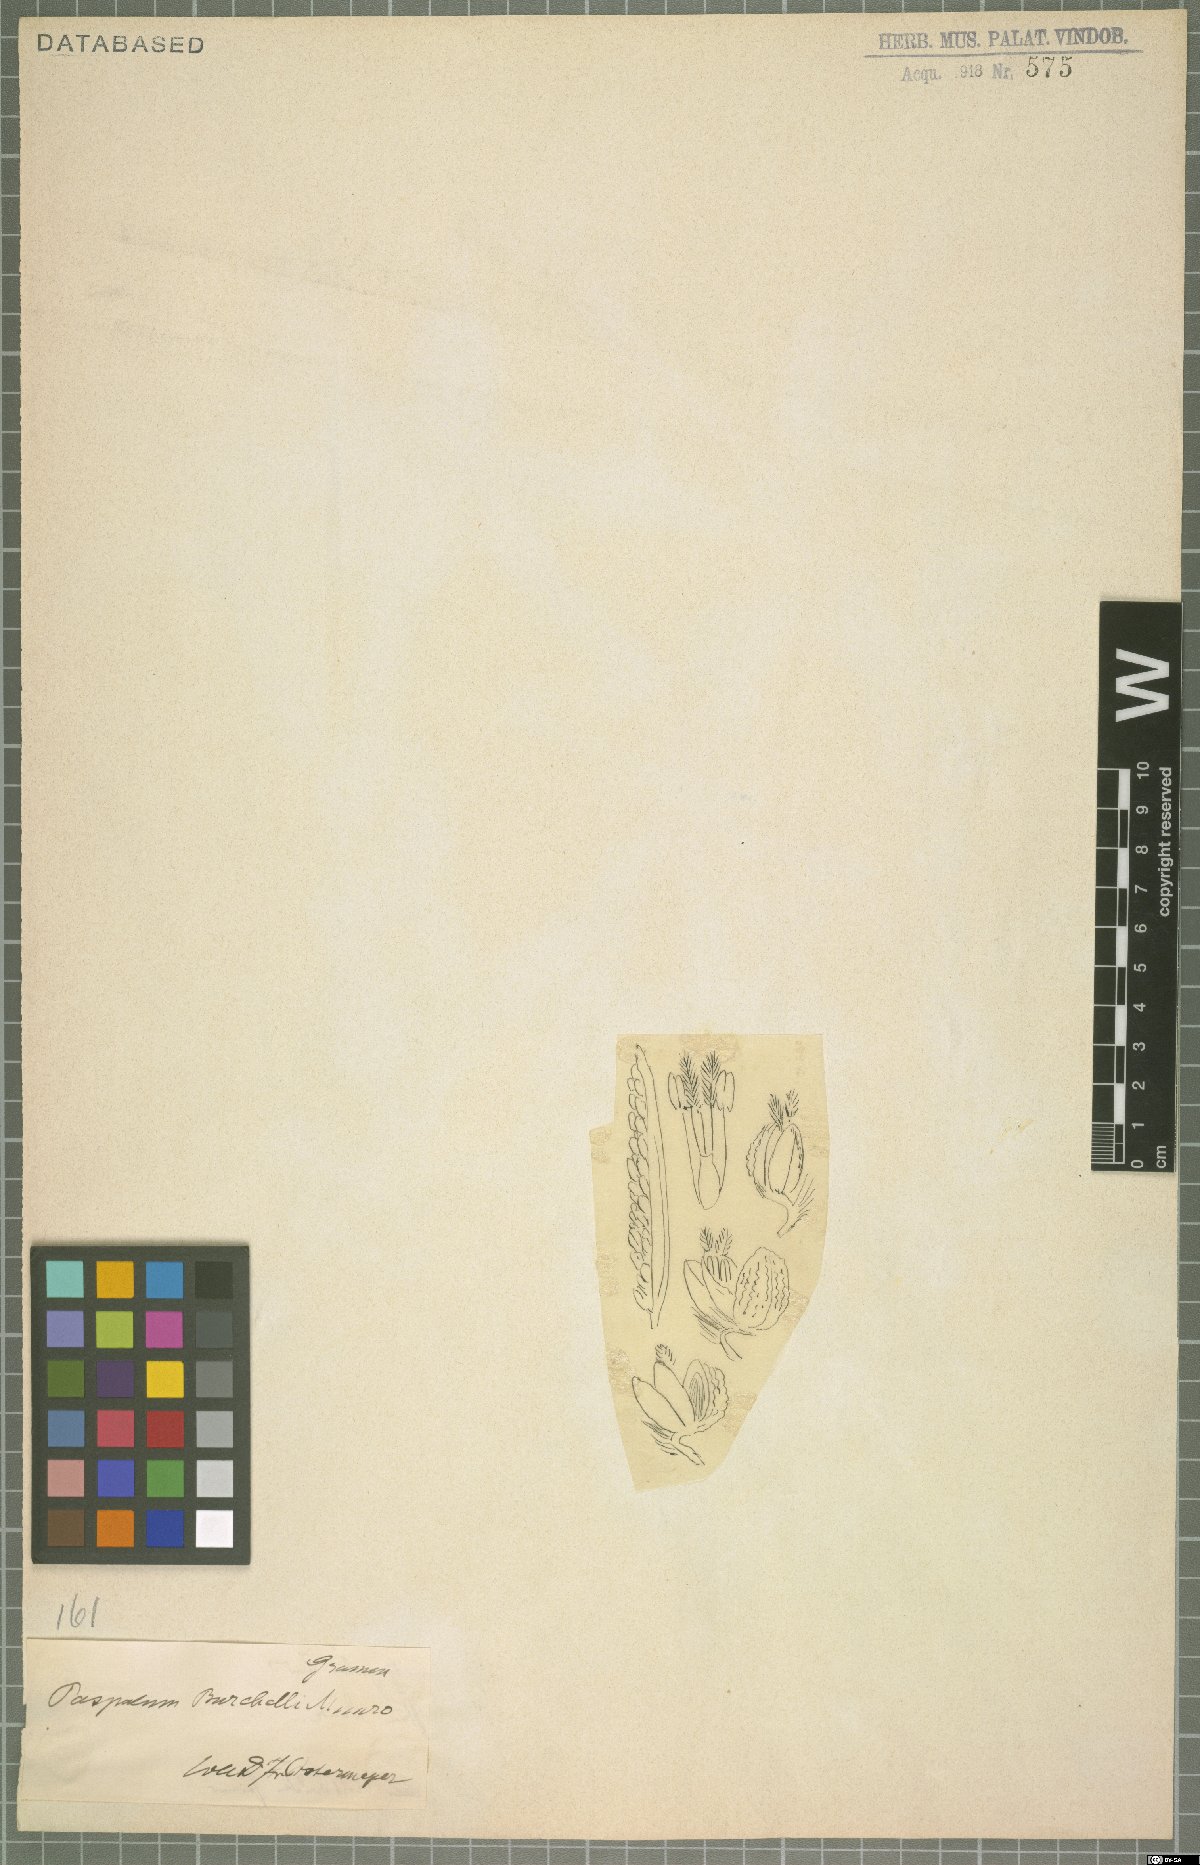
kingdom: Plantae
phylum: Tracheophyta
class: Liliopsida
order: Poales
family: Poaceae
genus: Paspalum
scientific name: Paspalum burchellii
